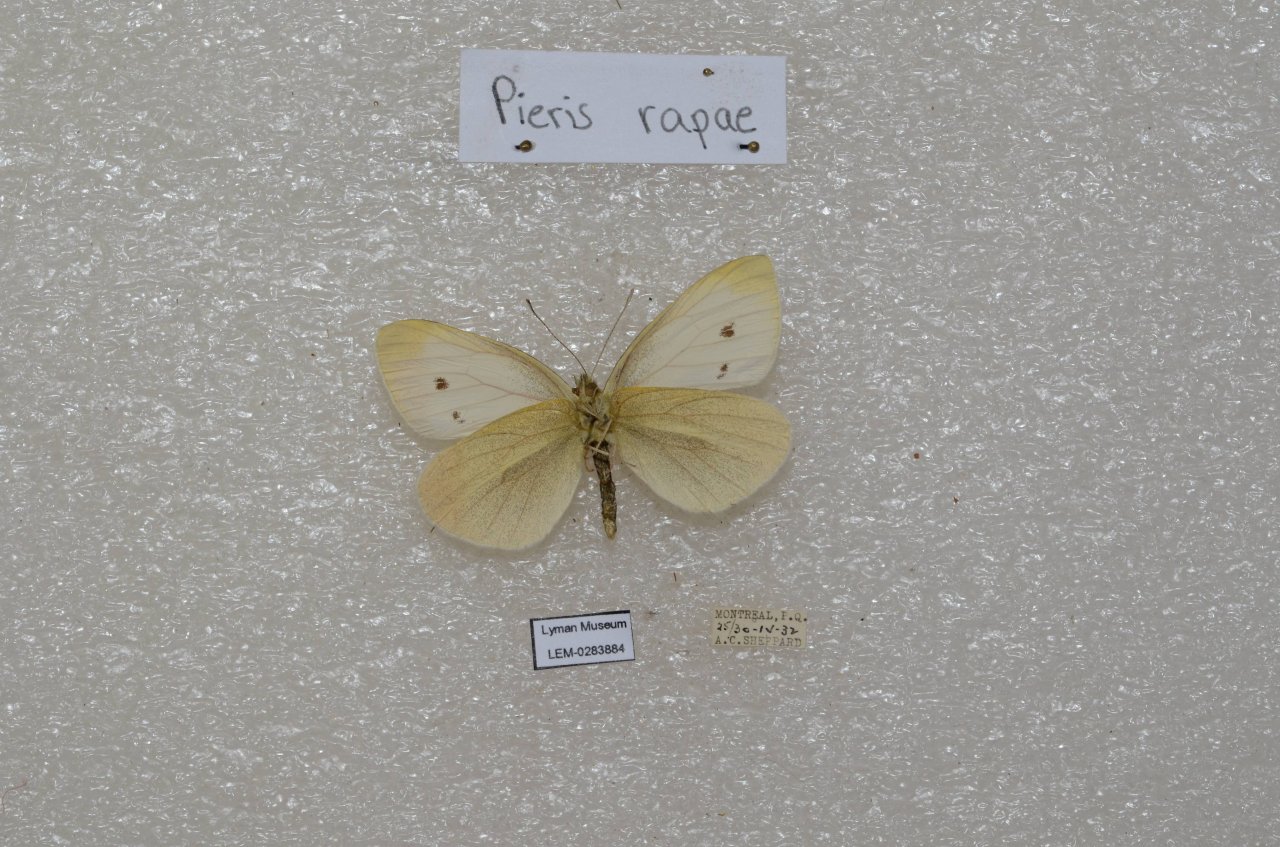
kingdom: Animalia
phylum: Arthropoda
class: Insecta
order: Lepidoptera
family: Pieridae
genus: Pieris
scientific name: Pieris rapae
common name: Cabbage White
